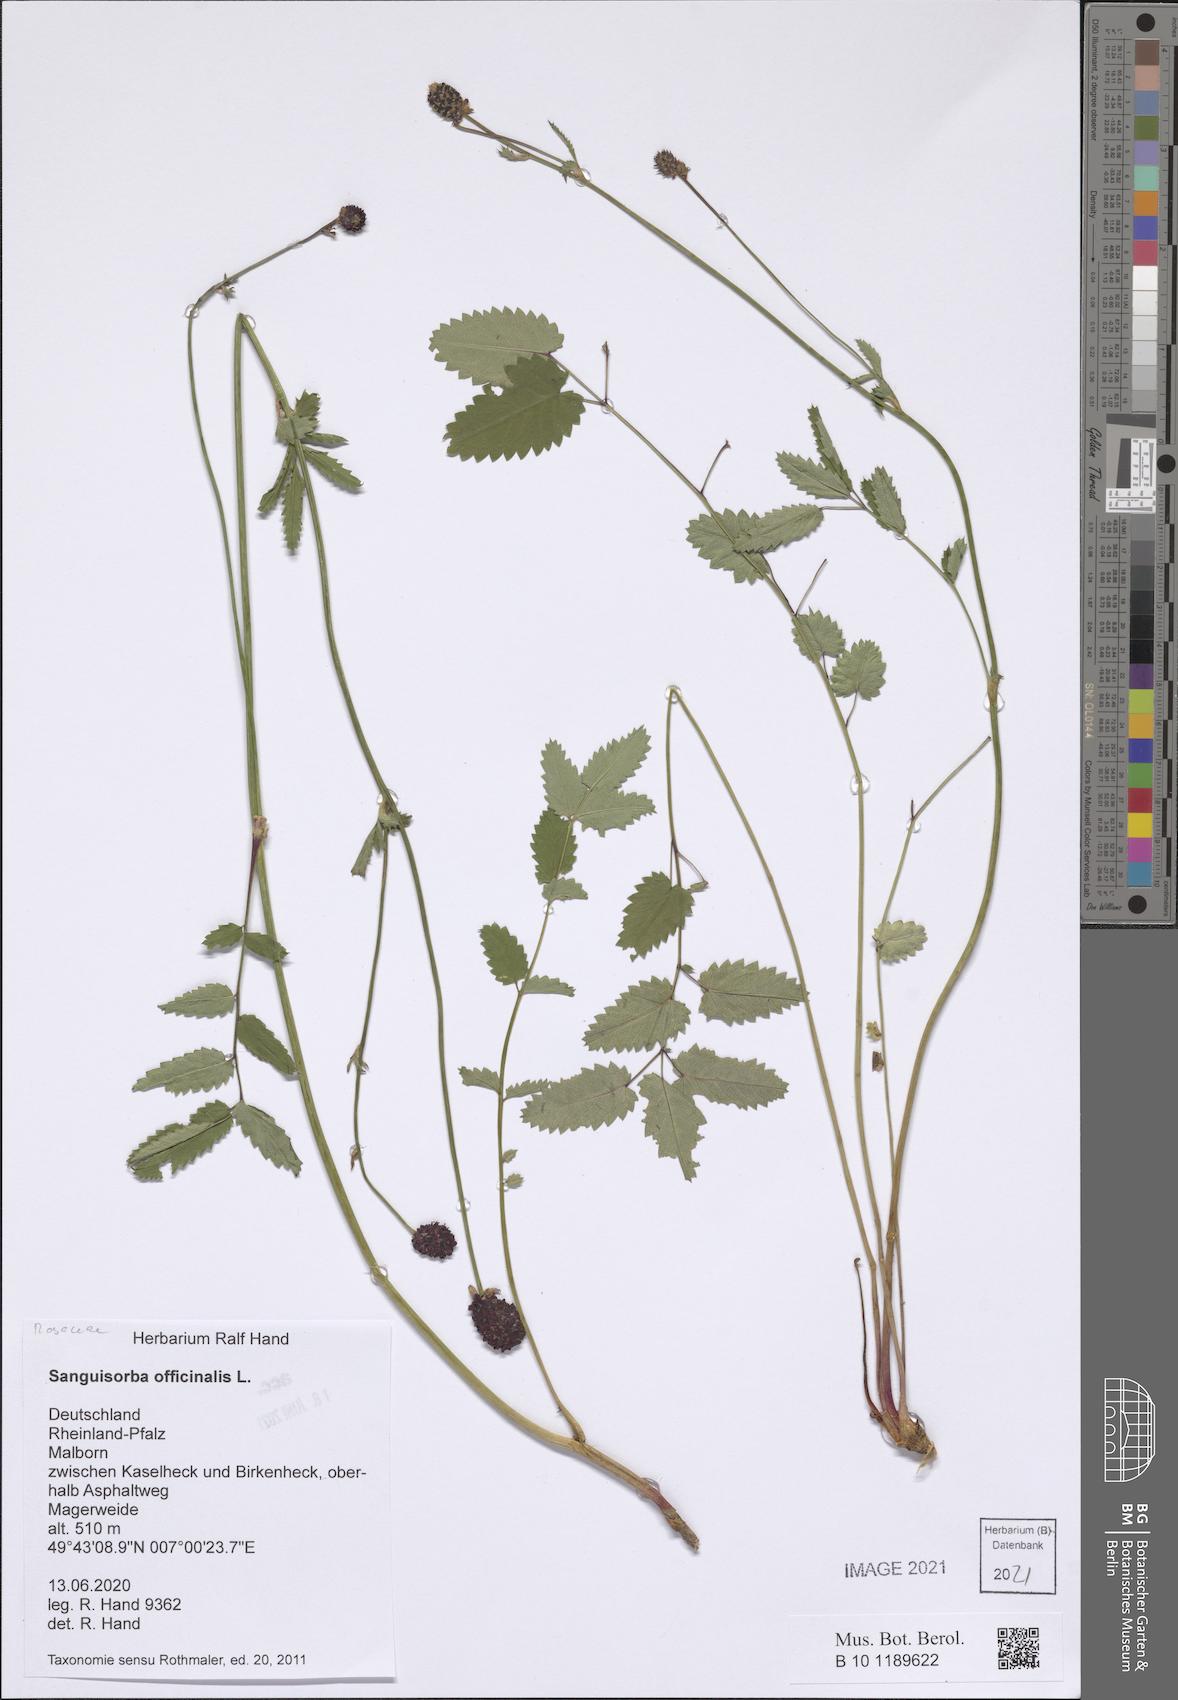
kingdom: Plantae
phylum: Tracheophyta
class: Magnoliopsida
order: Rosales
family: Rosaceae
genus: Sanguisorba
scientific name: Sanguisorba officinalis
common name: Great burnet
